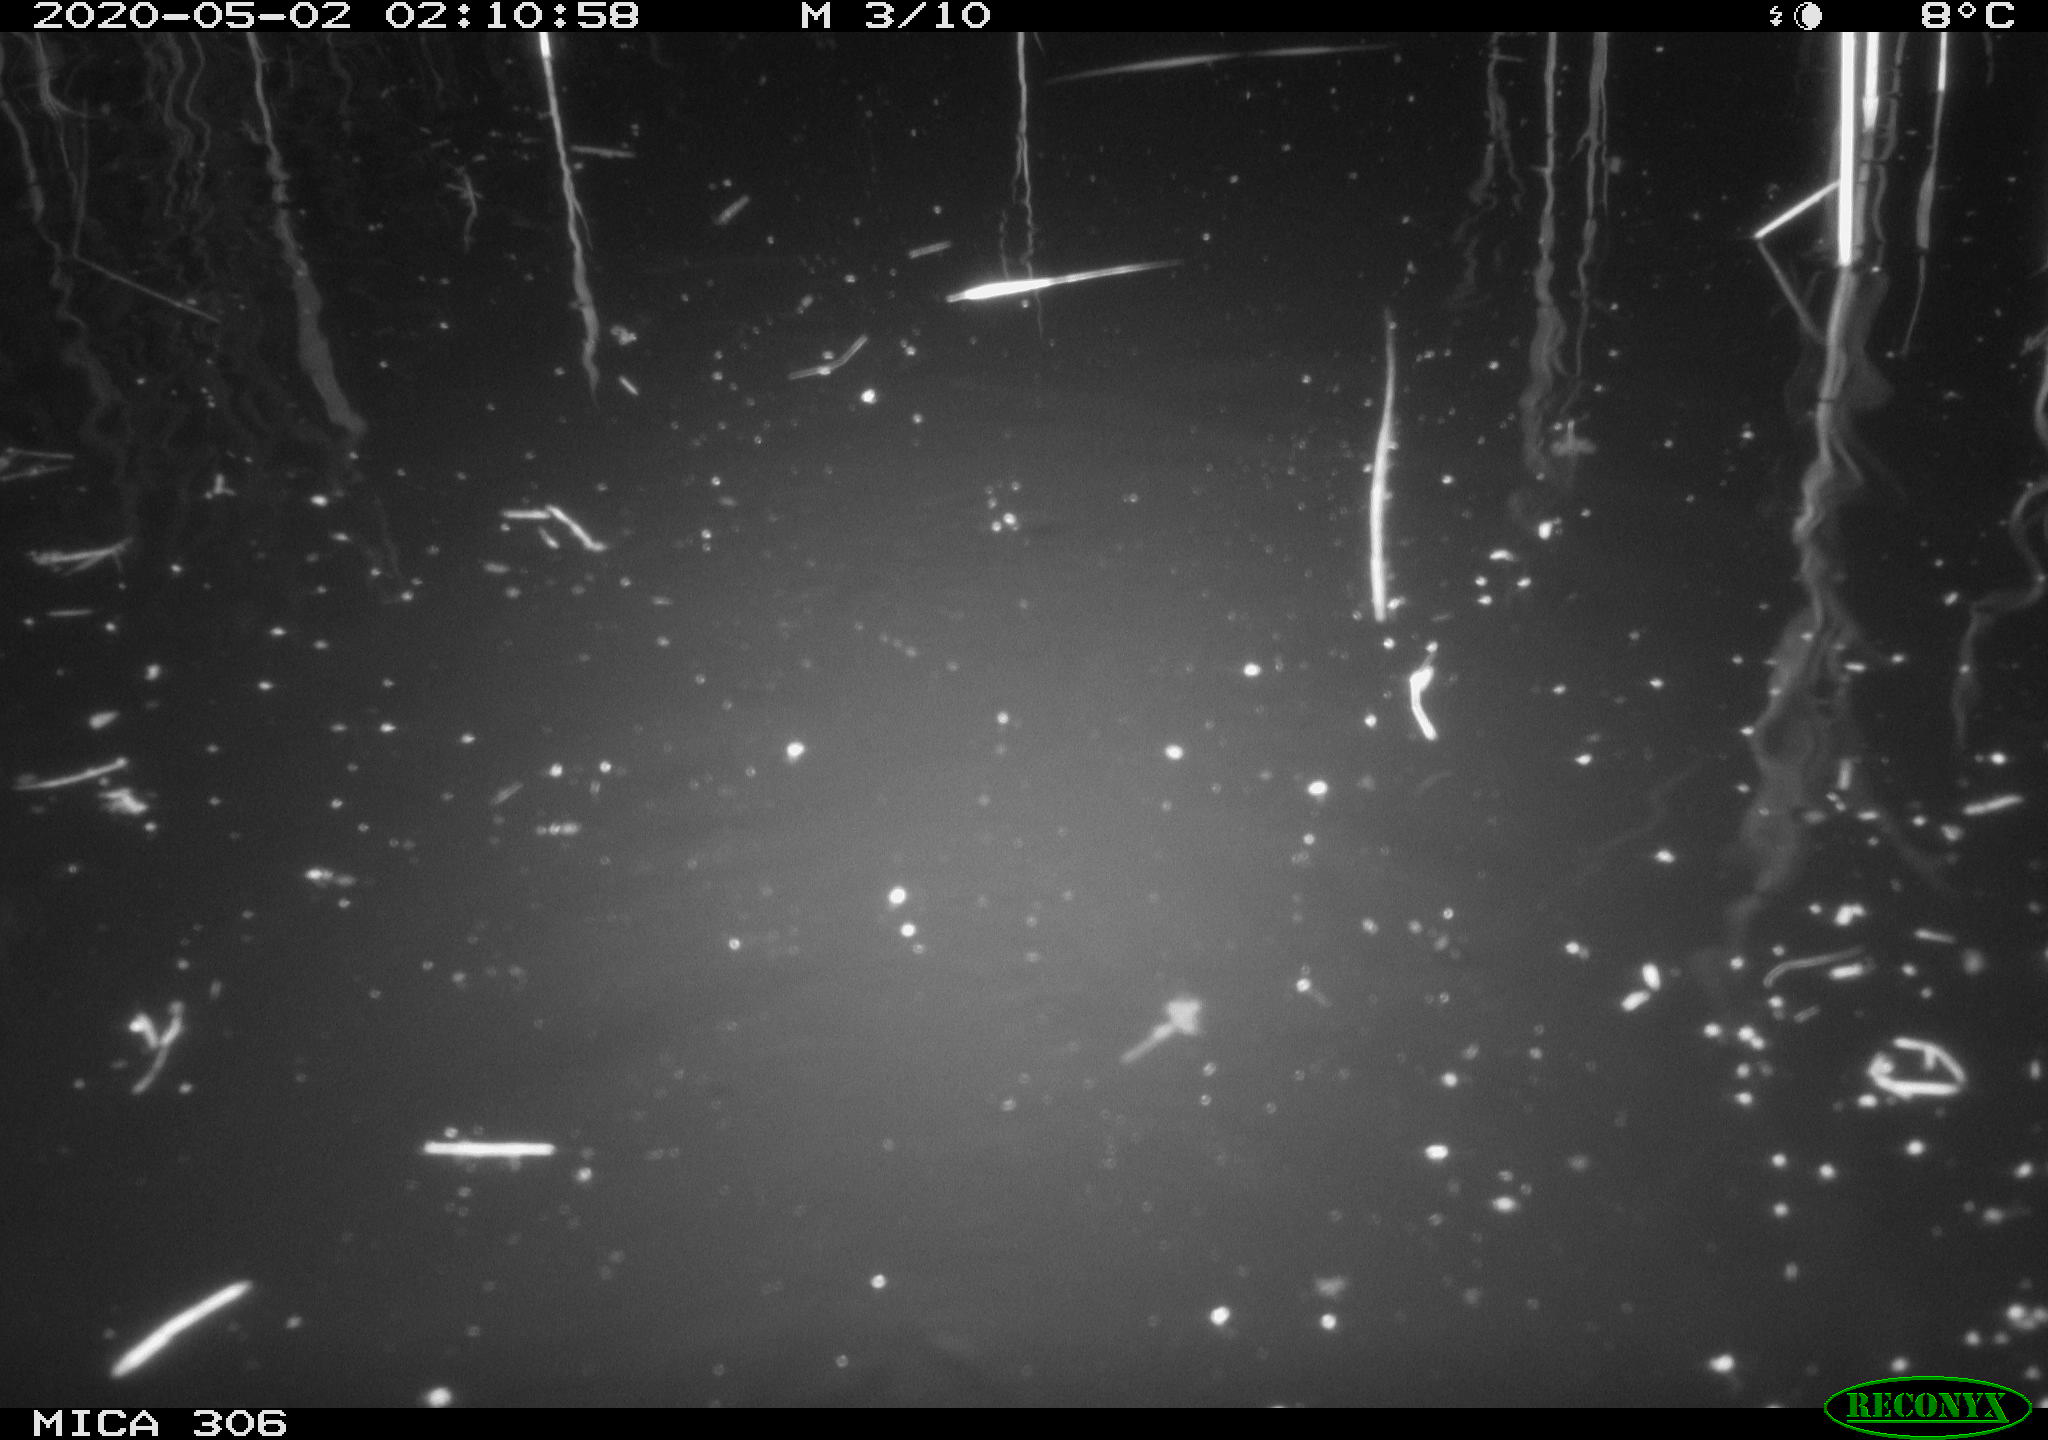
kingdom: Animalia
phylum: Chordata
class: Mammalia
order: Rodentia
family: Cricetidae
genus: Ondatra
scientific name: Ondatra zibethicus
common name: Muskrat
